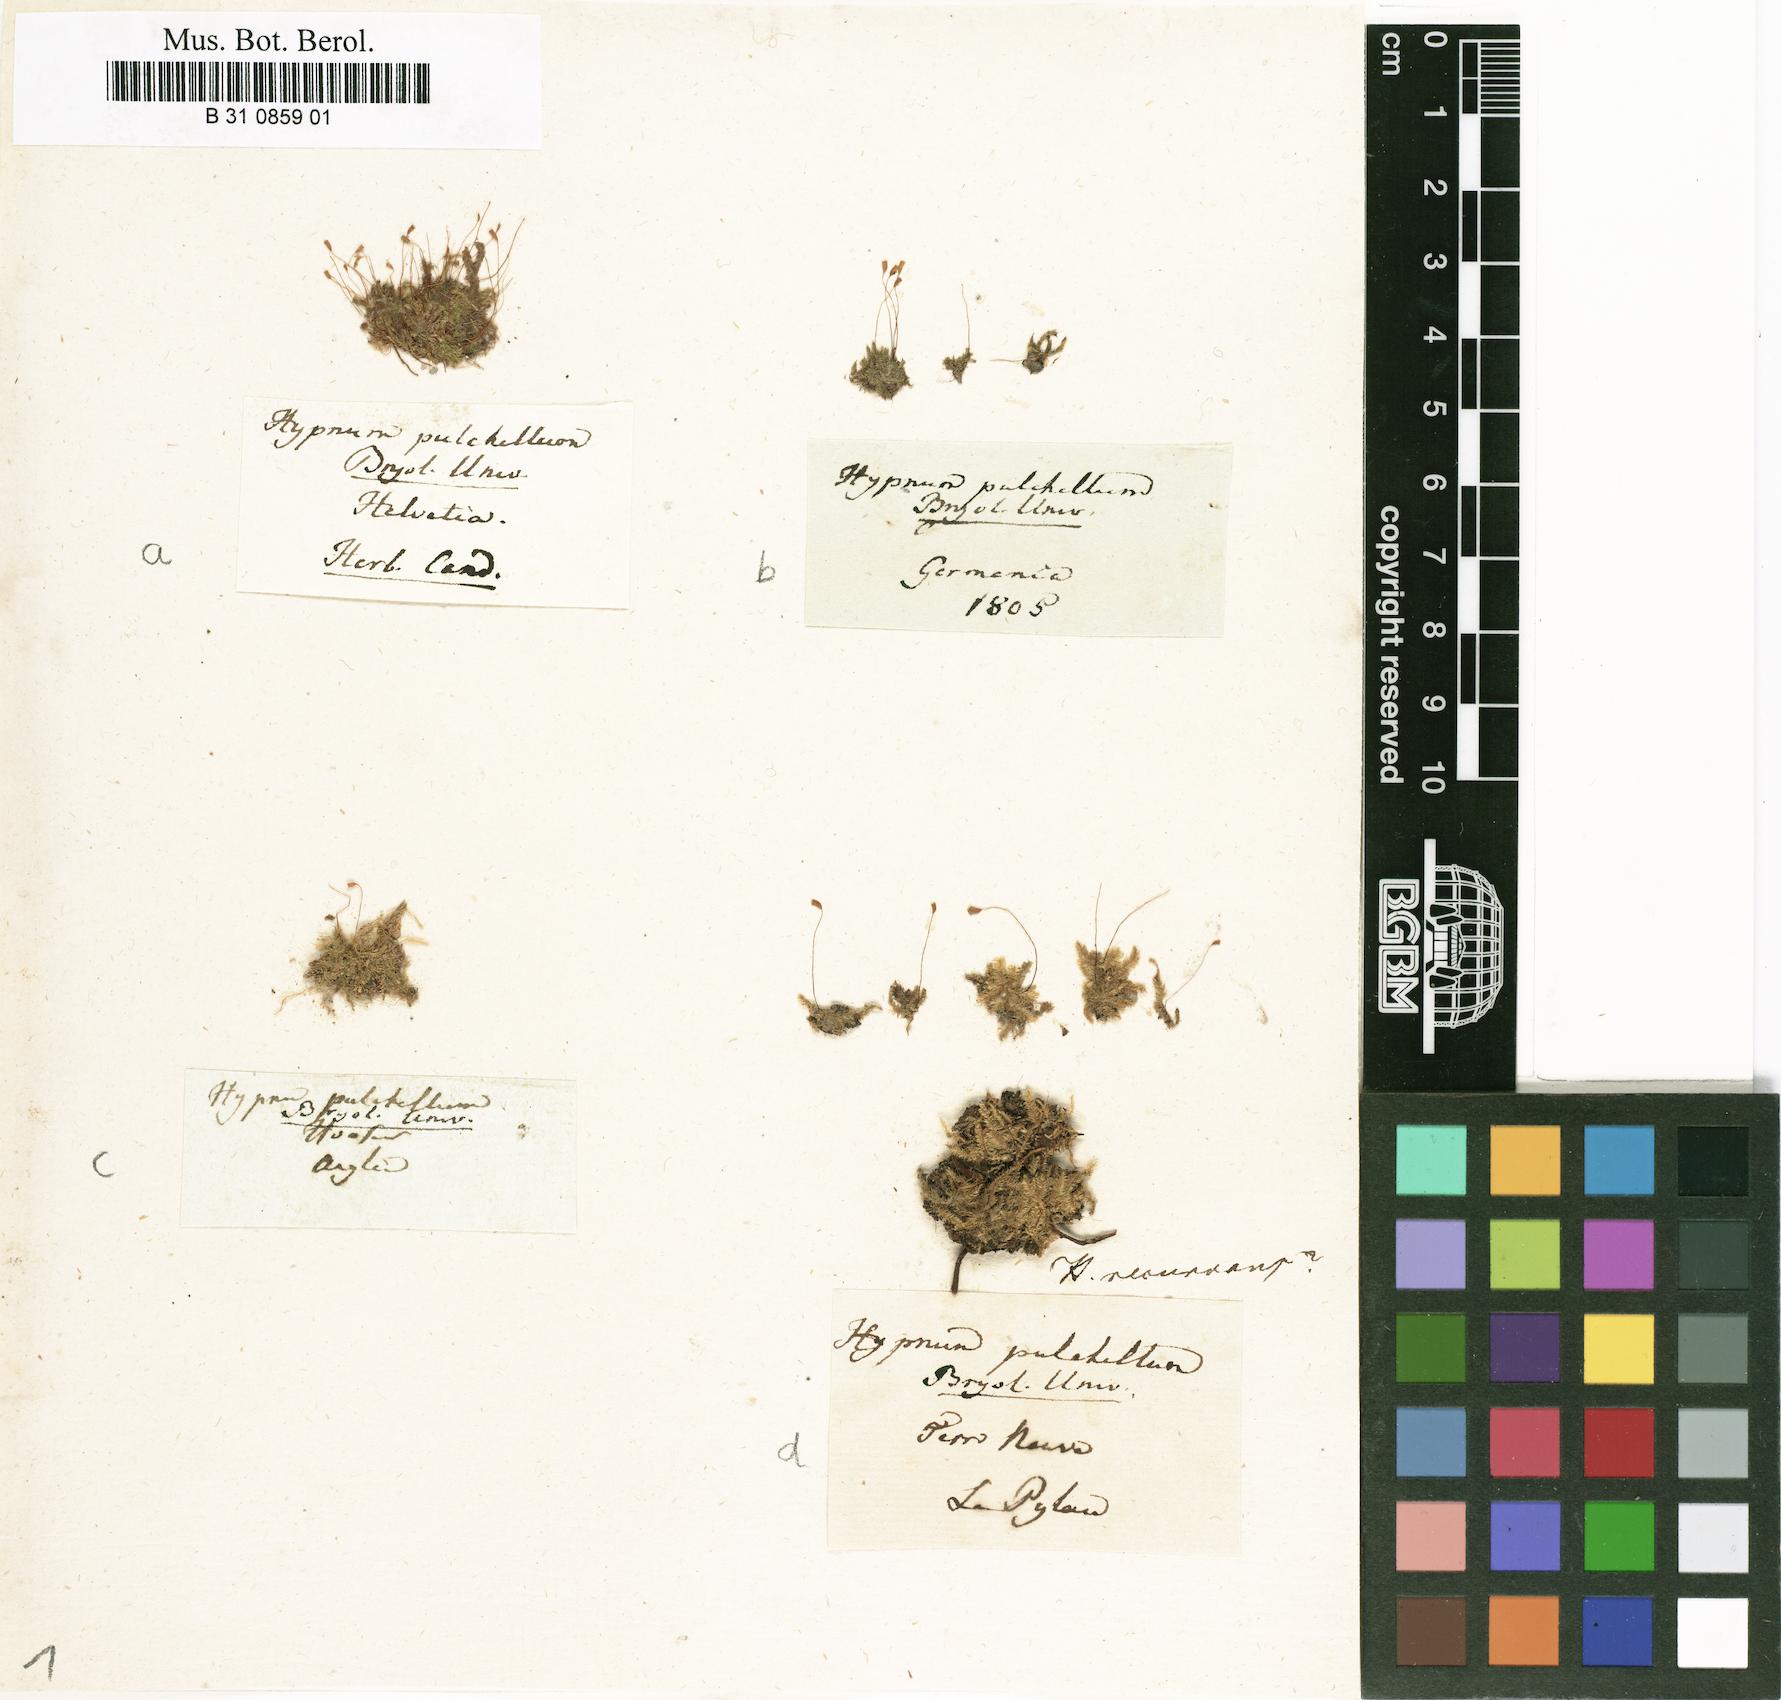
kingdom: Plantae
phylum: Bryophyta
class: Bryopsida
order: Hypnales
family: Brachytheciaceae
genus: Eurhynchiastrum
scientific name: Eurhynchiastrum pulchellum
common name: Elegant beaked moss
